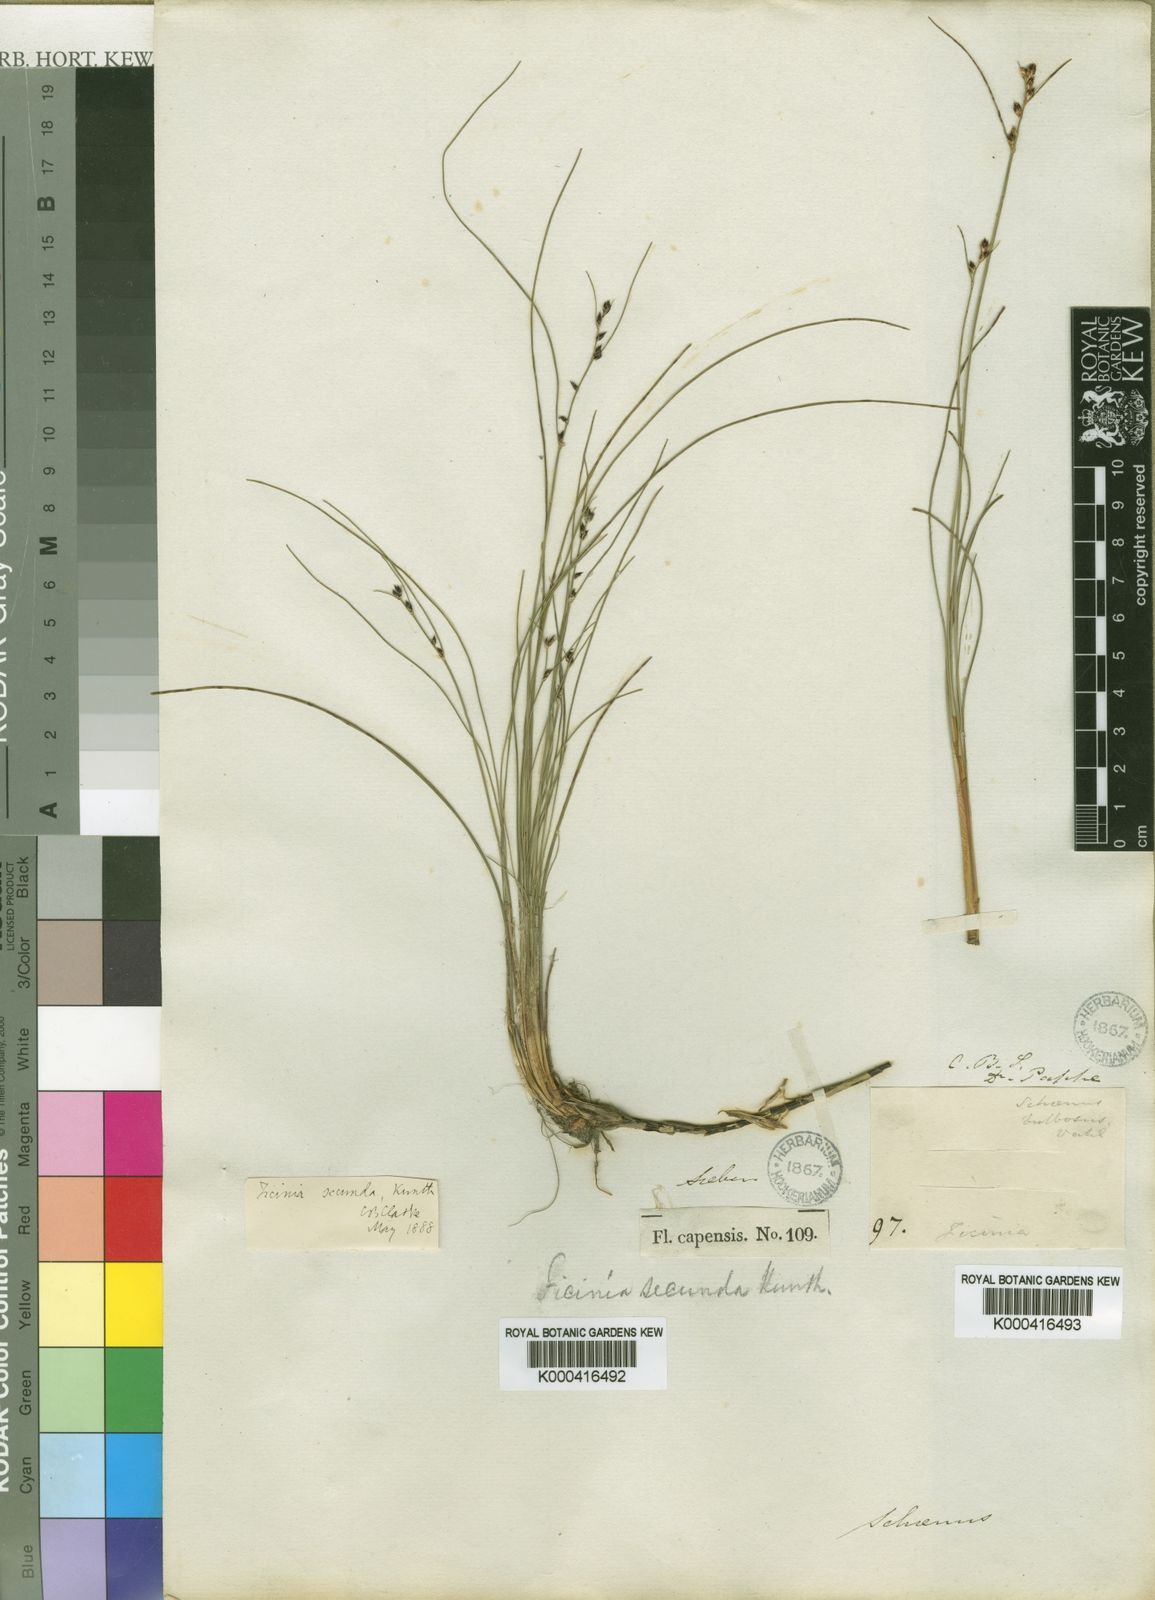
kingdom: Plantae
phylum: Tracheophyta
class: Liliopsida
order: Poales
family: Cyperaceae
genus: Ficinia
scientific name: Ficinia secunda
